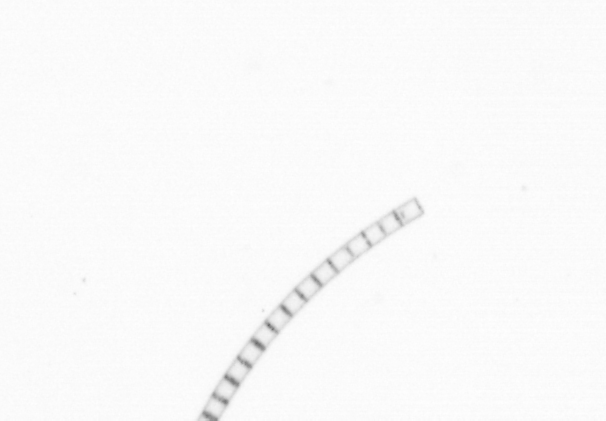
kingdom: Chromista
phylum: Ochrophyta
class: Bacillariophyceae
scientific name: Bacillariophyceae
